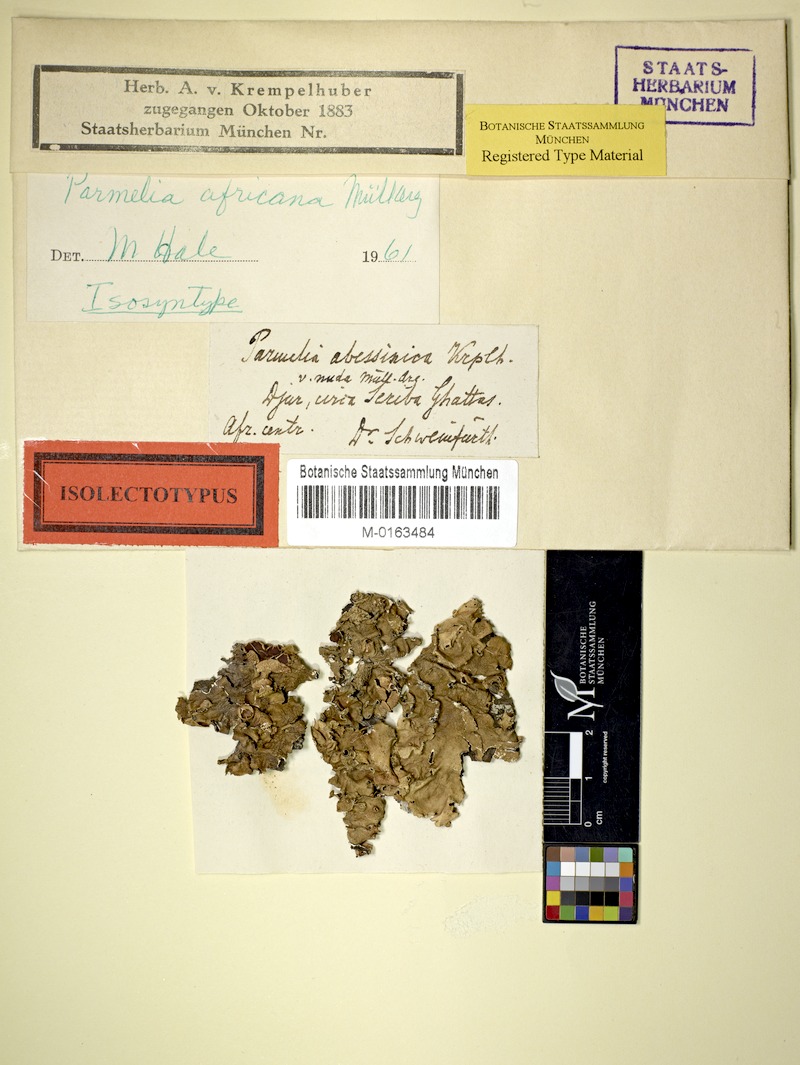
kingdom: Fungi
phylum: Ascomycota
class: Lecanoromycetes
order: Lecanorales
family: Parmeliaceae
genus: Parmotrema
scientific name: Parmotrema andinum
